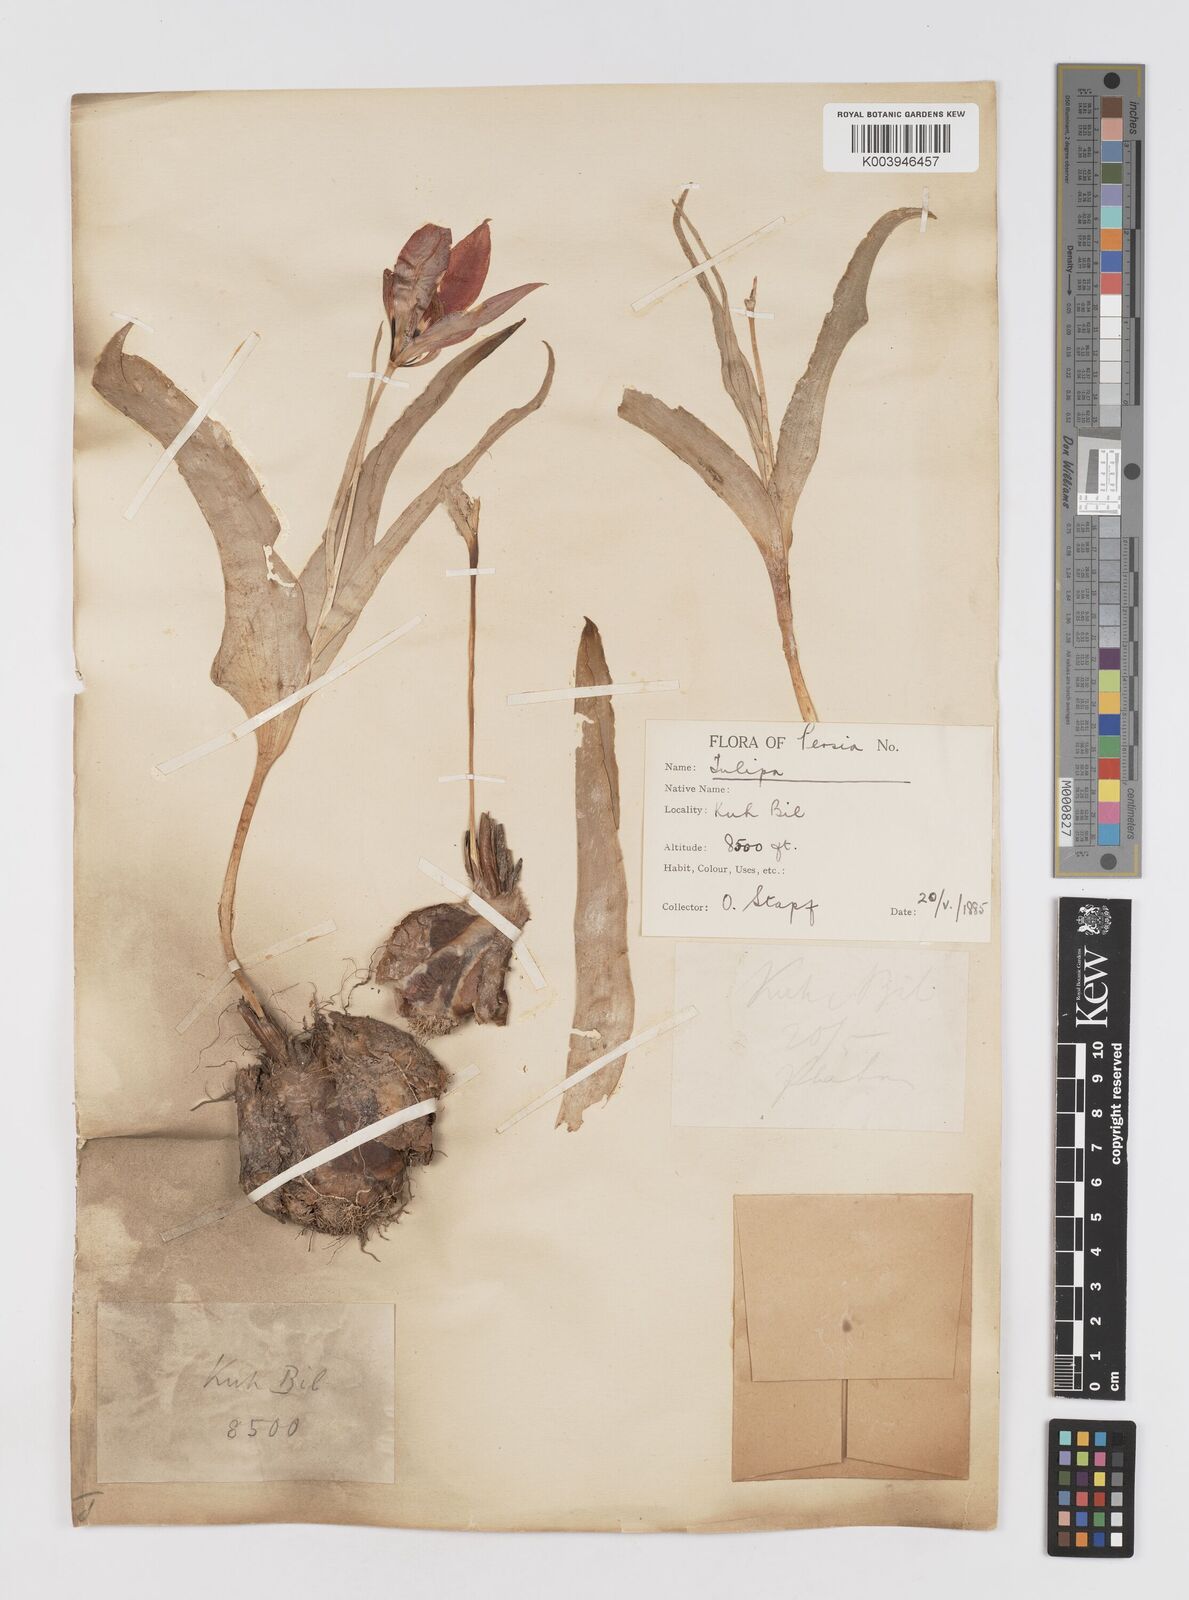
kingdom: Plantae
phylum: Tracheophyta
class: Liliopsida
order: Liliales
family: Liliaceae
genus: Tulipa
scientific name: Tulipa
